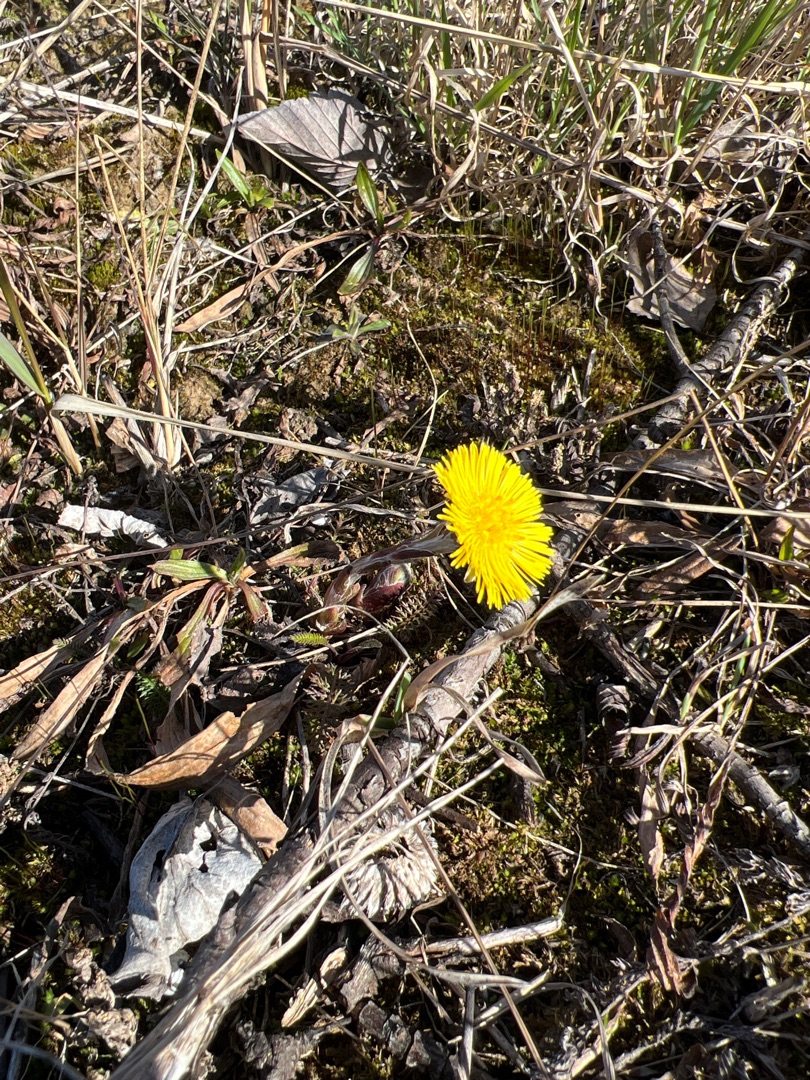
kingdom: Plantae
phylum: Tracheophyta
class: Magnoliopsida
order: Asterales
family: Asteraceae
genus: Tussilago
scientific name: Tussilago farfara
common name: Følfod
